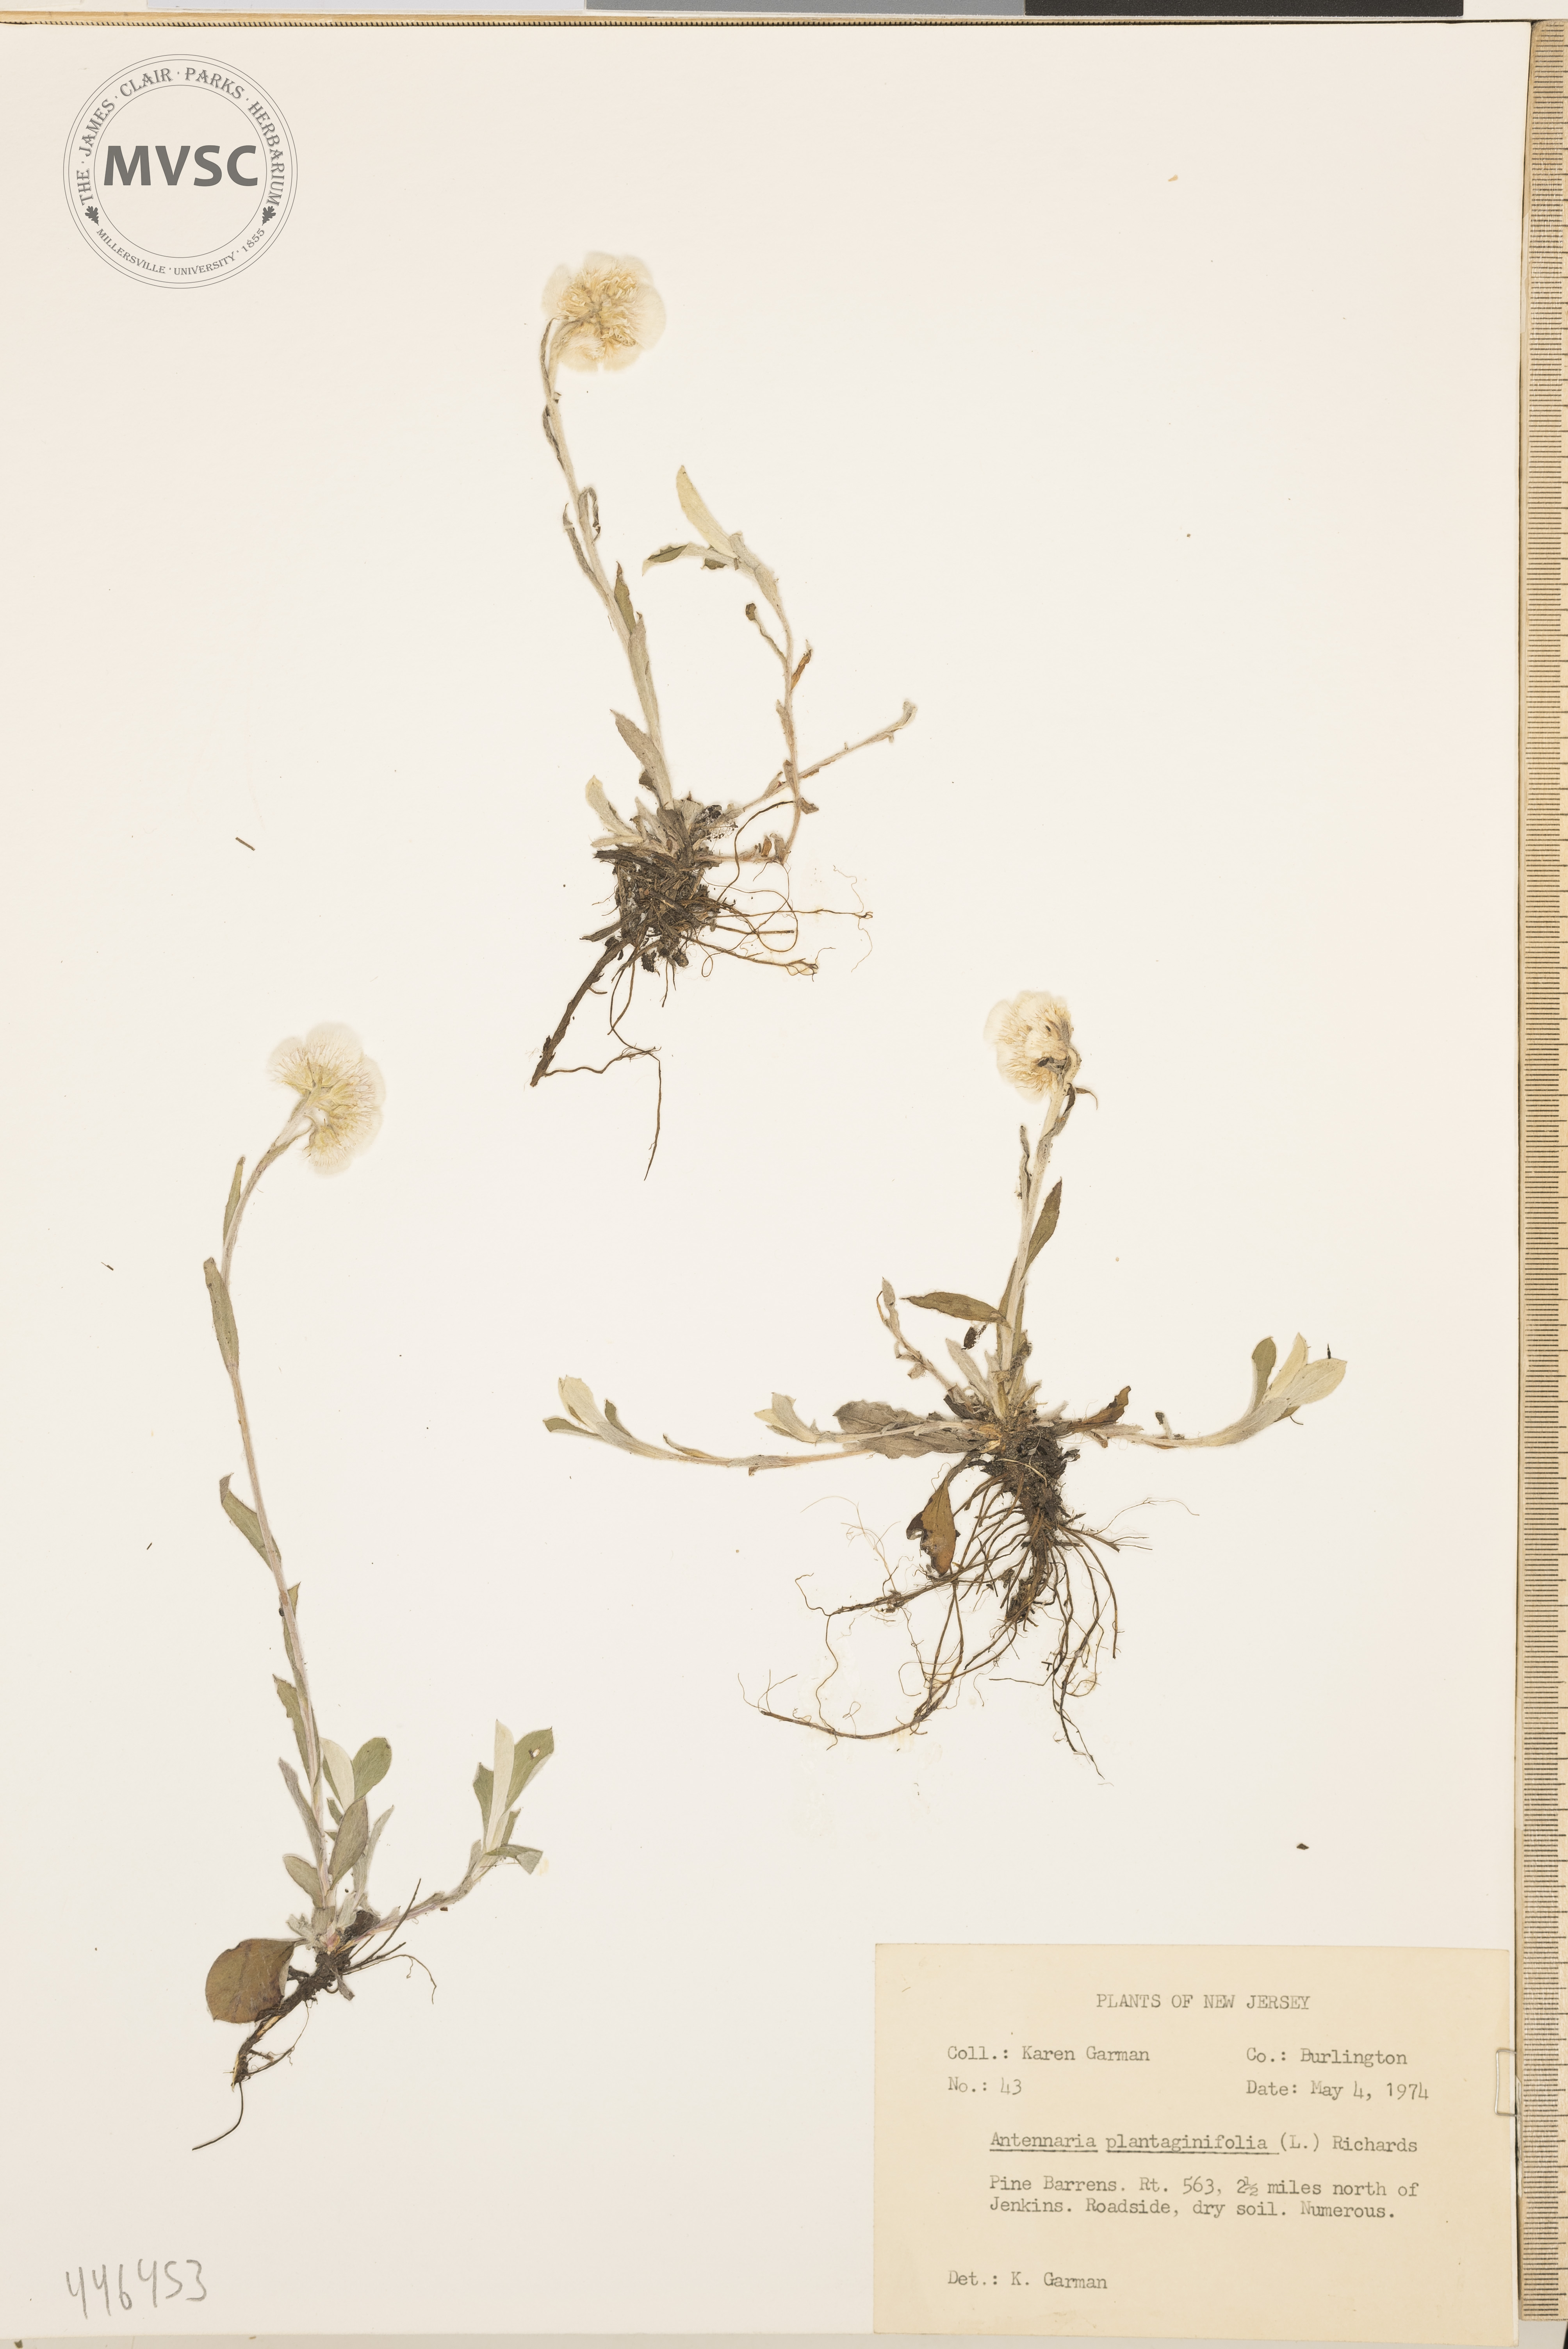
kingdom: Plantae
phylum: Tracheophyta
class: Magnoliopsida
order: Asterales
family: Asteraceae
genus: Antennaria
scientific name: Antennaria plantaginifolia
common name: Plantain-leaved pussytoes
